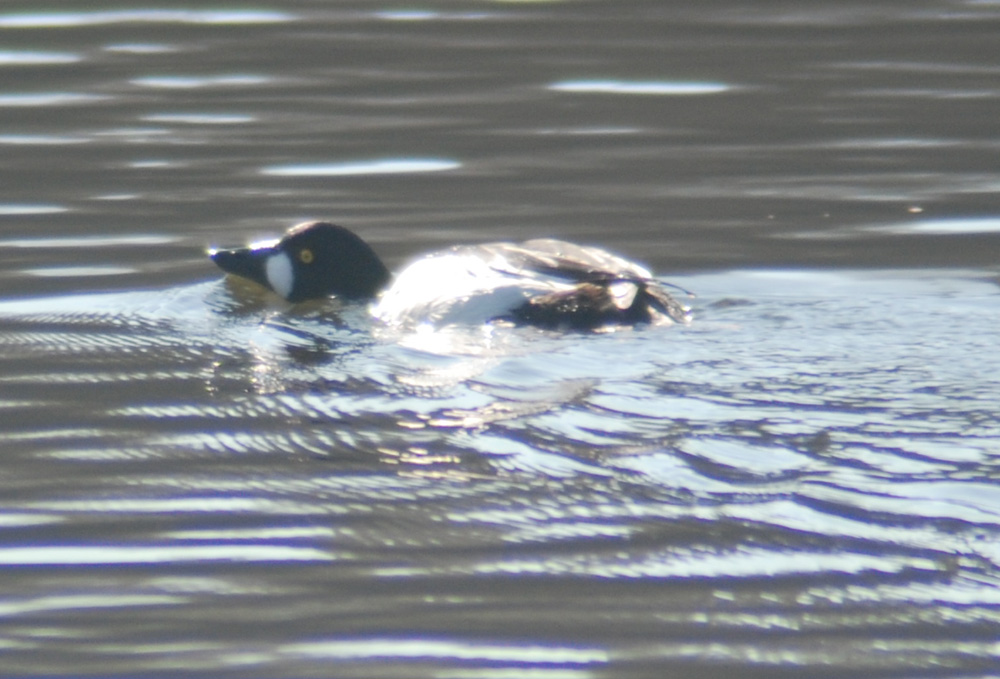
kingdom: Animalia
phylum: Chordata
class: Aves
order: Anseriformes
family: Anatidae
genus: Bucephala
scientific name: Bucephala clangula
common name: Common goldeneye
